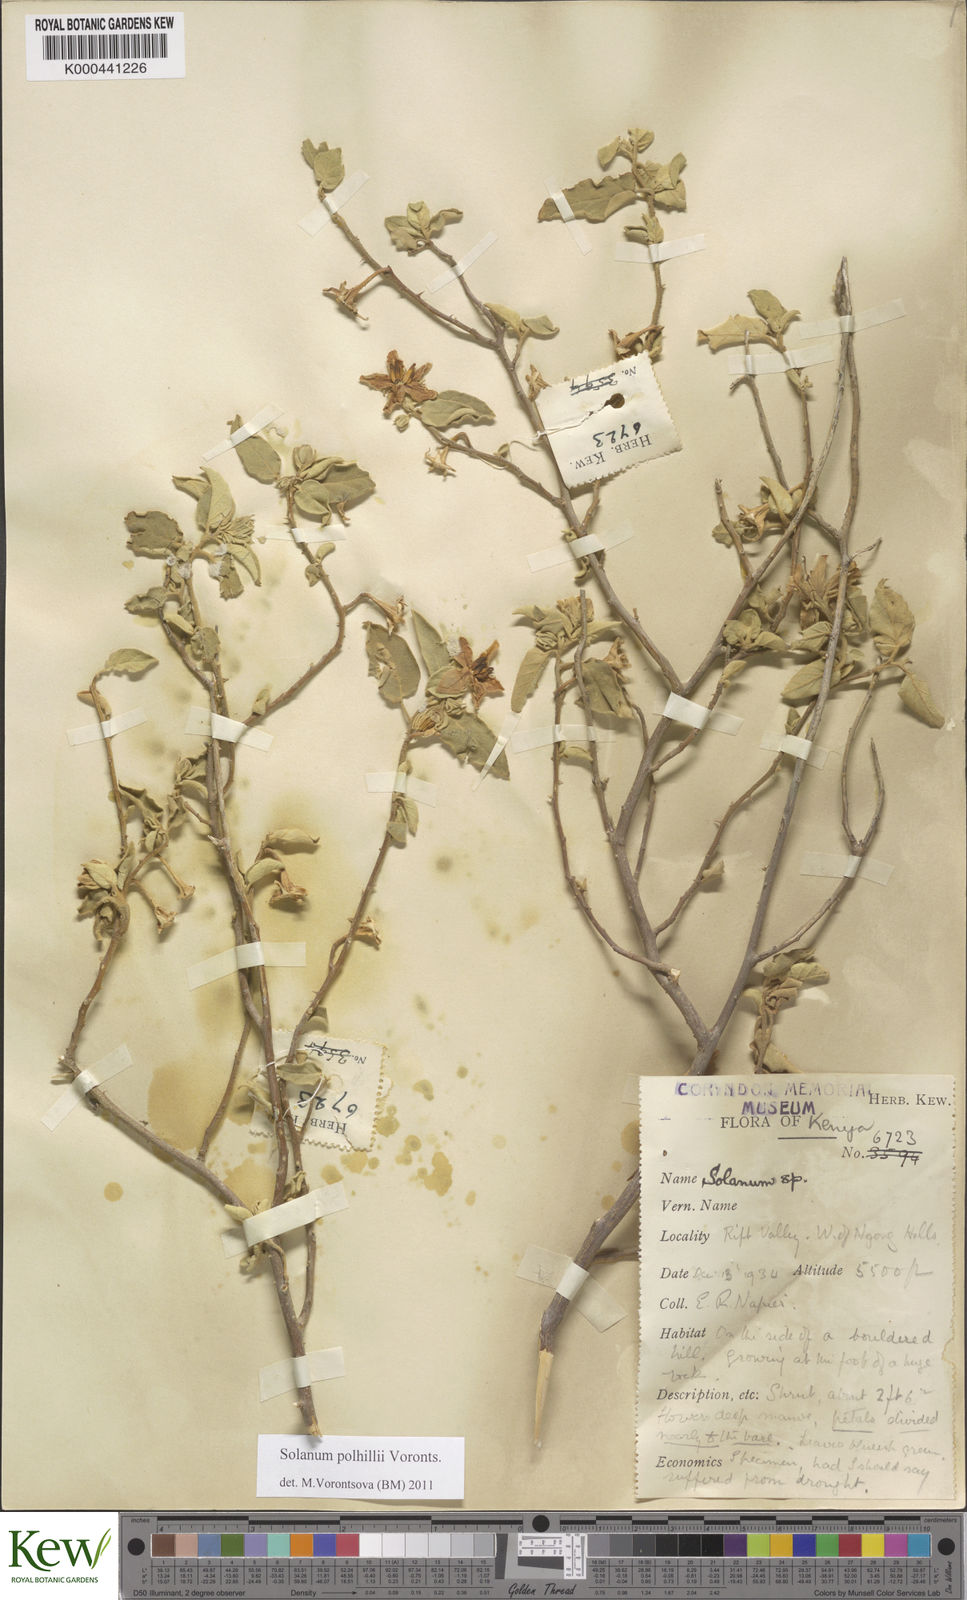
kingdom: Plantae
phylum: Tracheophyta
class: Magnoliopsida
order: Solanales
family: Solanaceae
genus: Solanum
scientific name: Solanum polhillii
